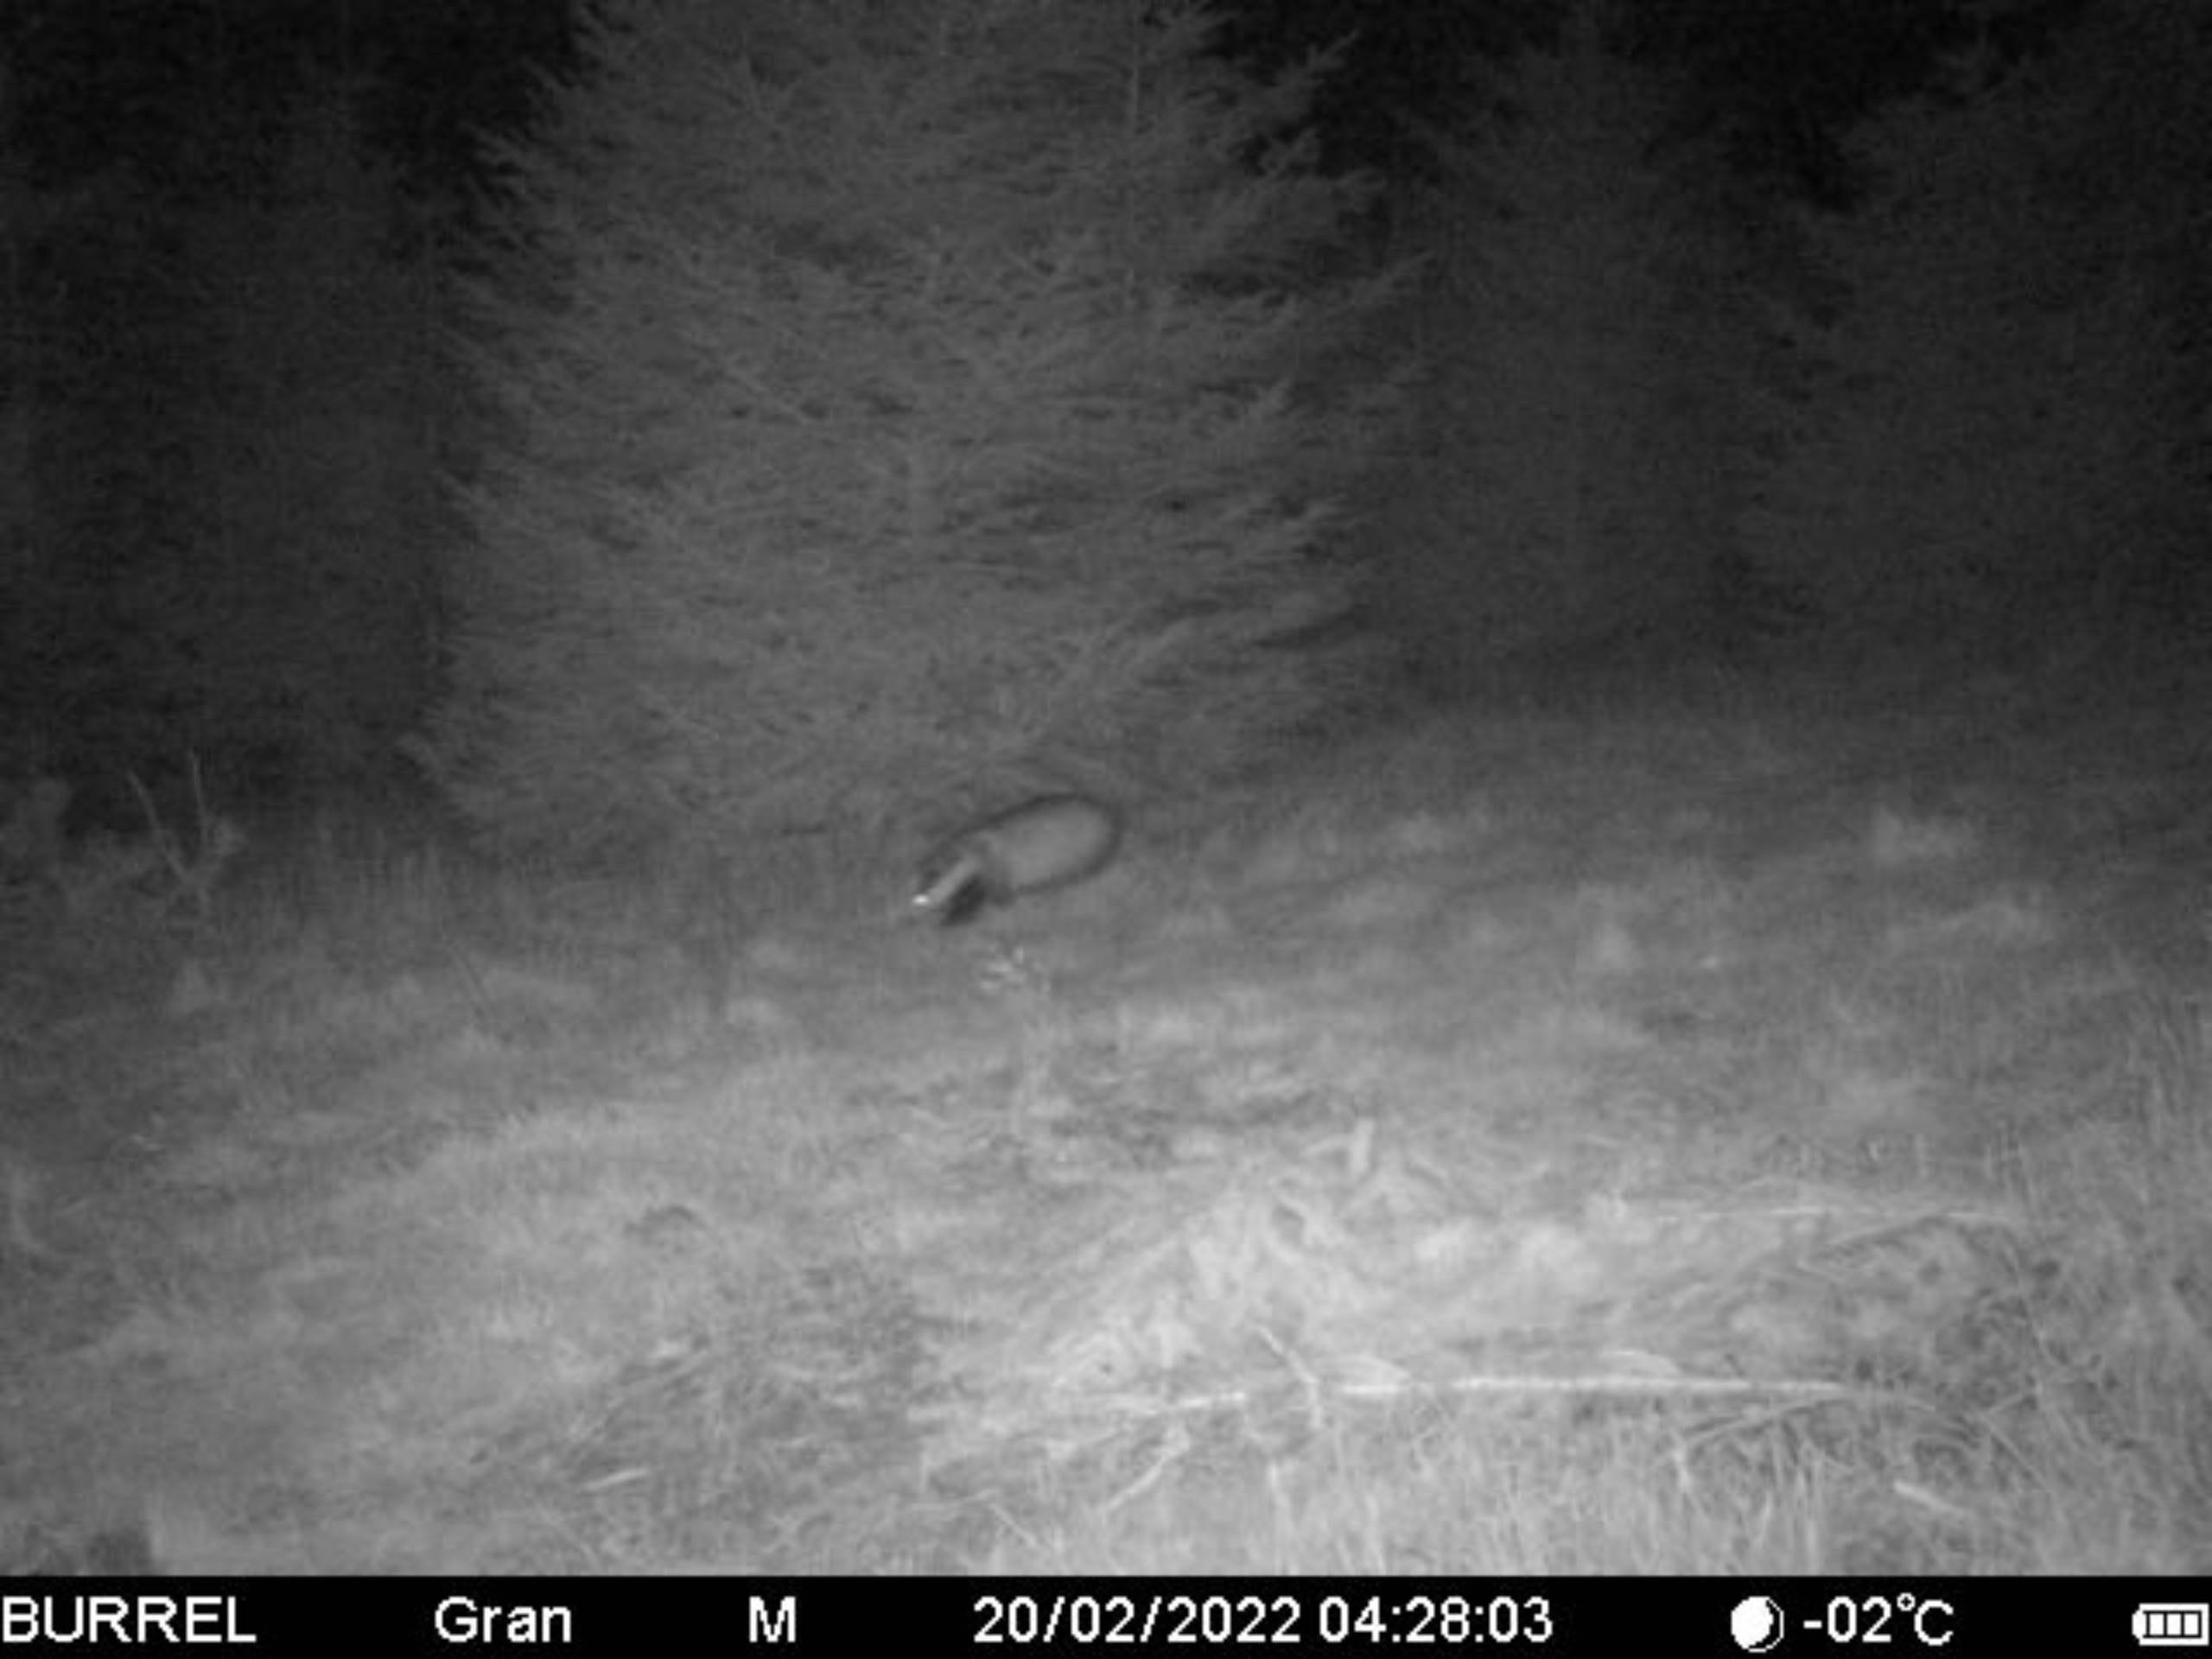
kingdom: Animalia
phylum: Chordata
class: Mammalia
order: Carnivora
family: Mustelidae
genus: Meles
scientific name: Meles meles
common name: Grævling
